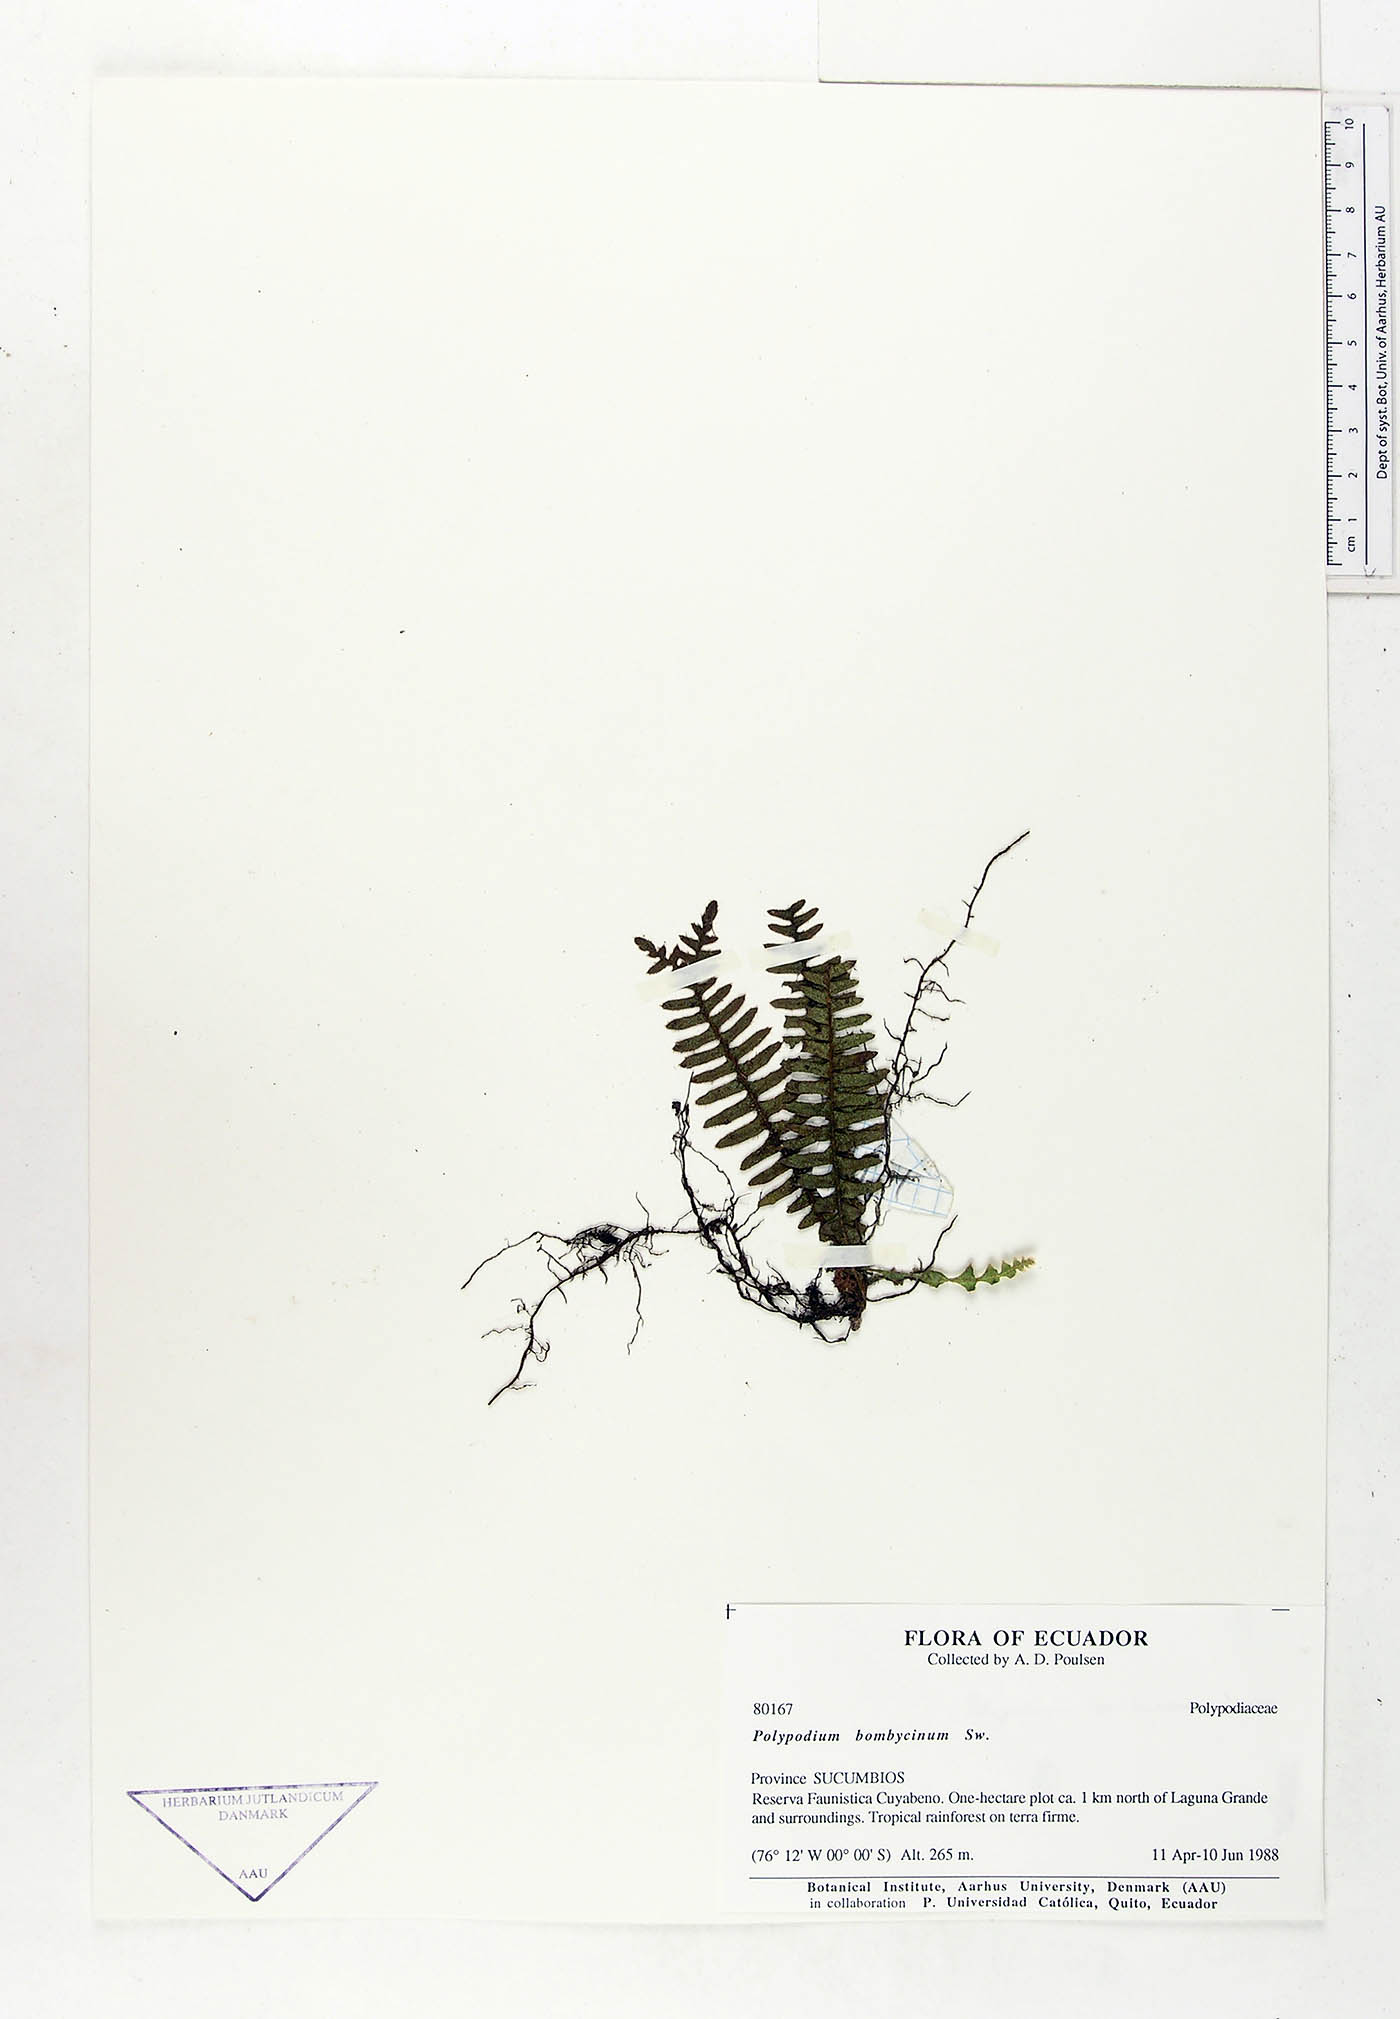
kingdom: Plantae
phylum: Tracheophyta
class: Polypodiopsida
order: Polypodiales
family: Polypodiaceae
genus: Pleopeltis
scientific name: Pleopeltis bombycina
